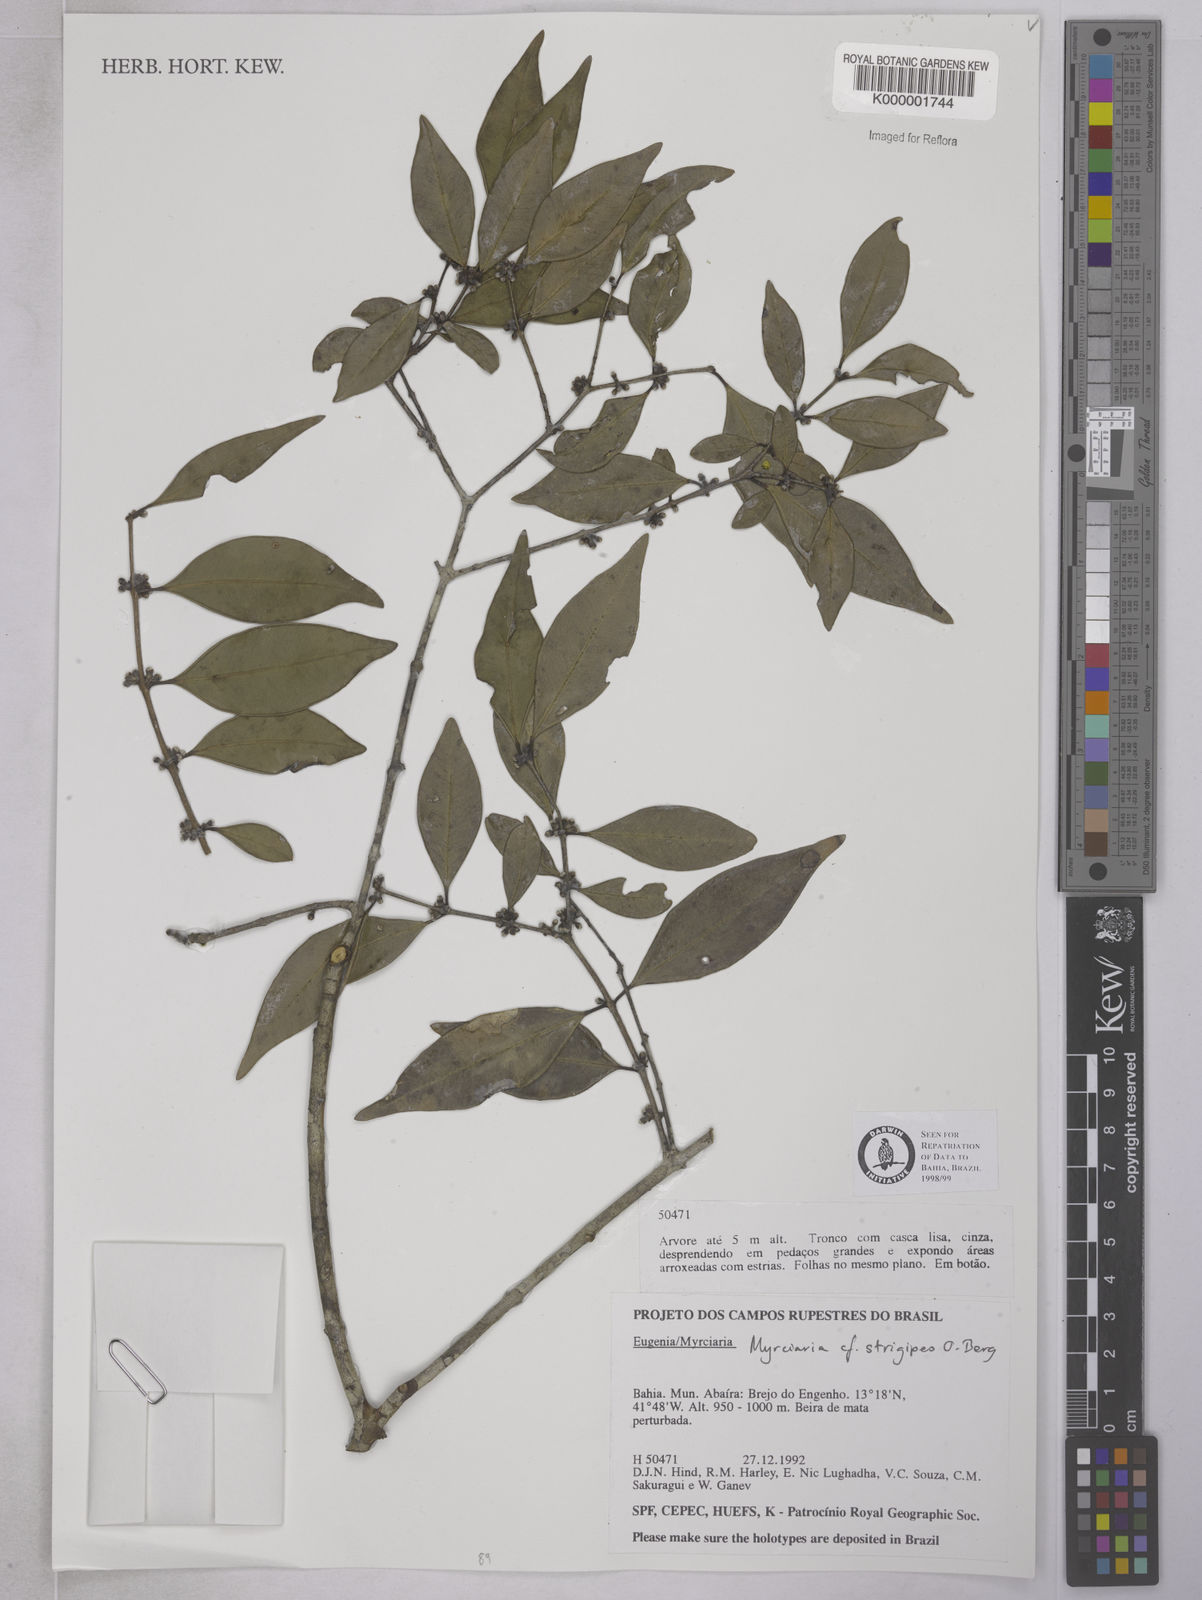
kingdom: Plantae
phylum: Tracheophyta
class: Magnoliopsida
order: Myrtales
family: Myrtaceae
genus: Myrciaria
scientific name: Myrciaria strigipes
